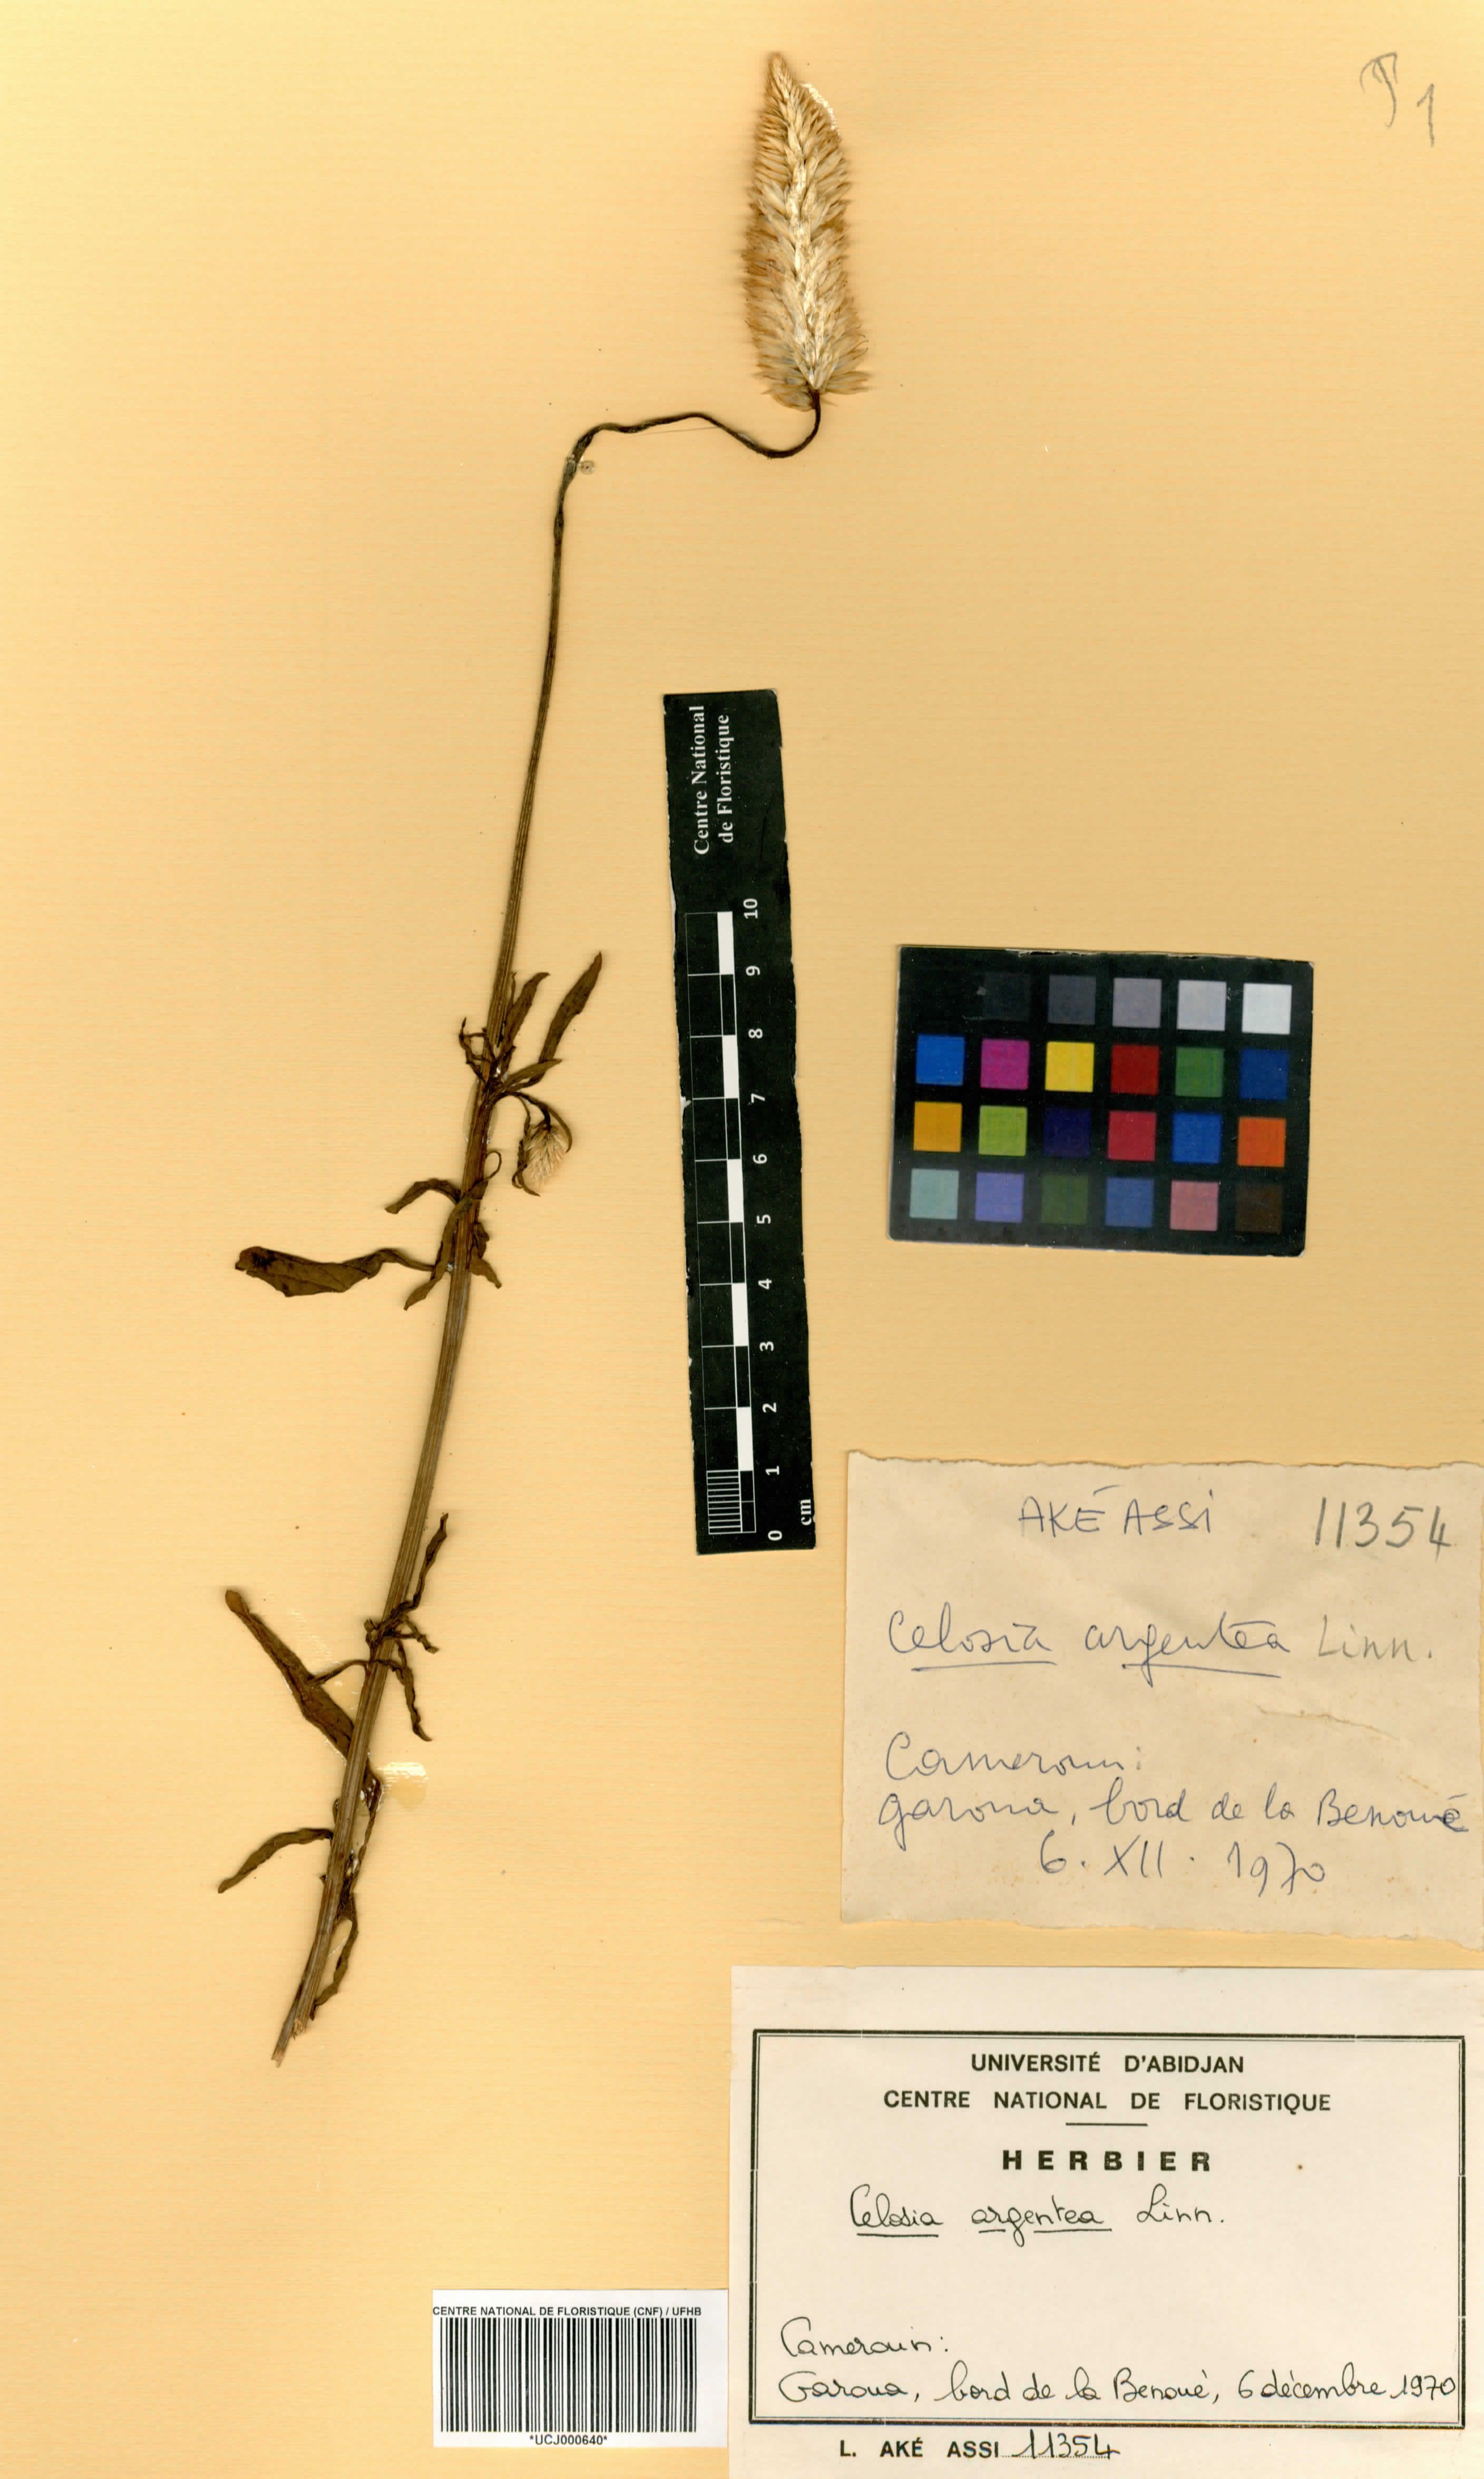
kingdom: Plantae
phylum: Tracheophyta
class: Magnoliopsida
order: Caryophyllales
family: Amaranthaceae
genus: Celosia
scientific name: Celosia argentea
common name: Feather cockscomb
